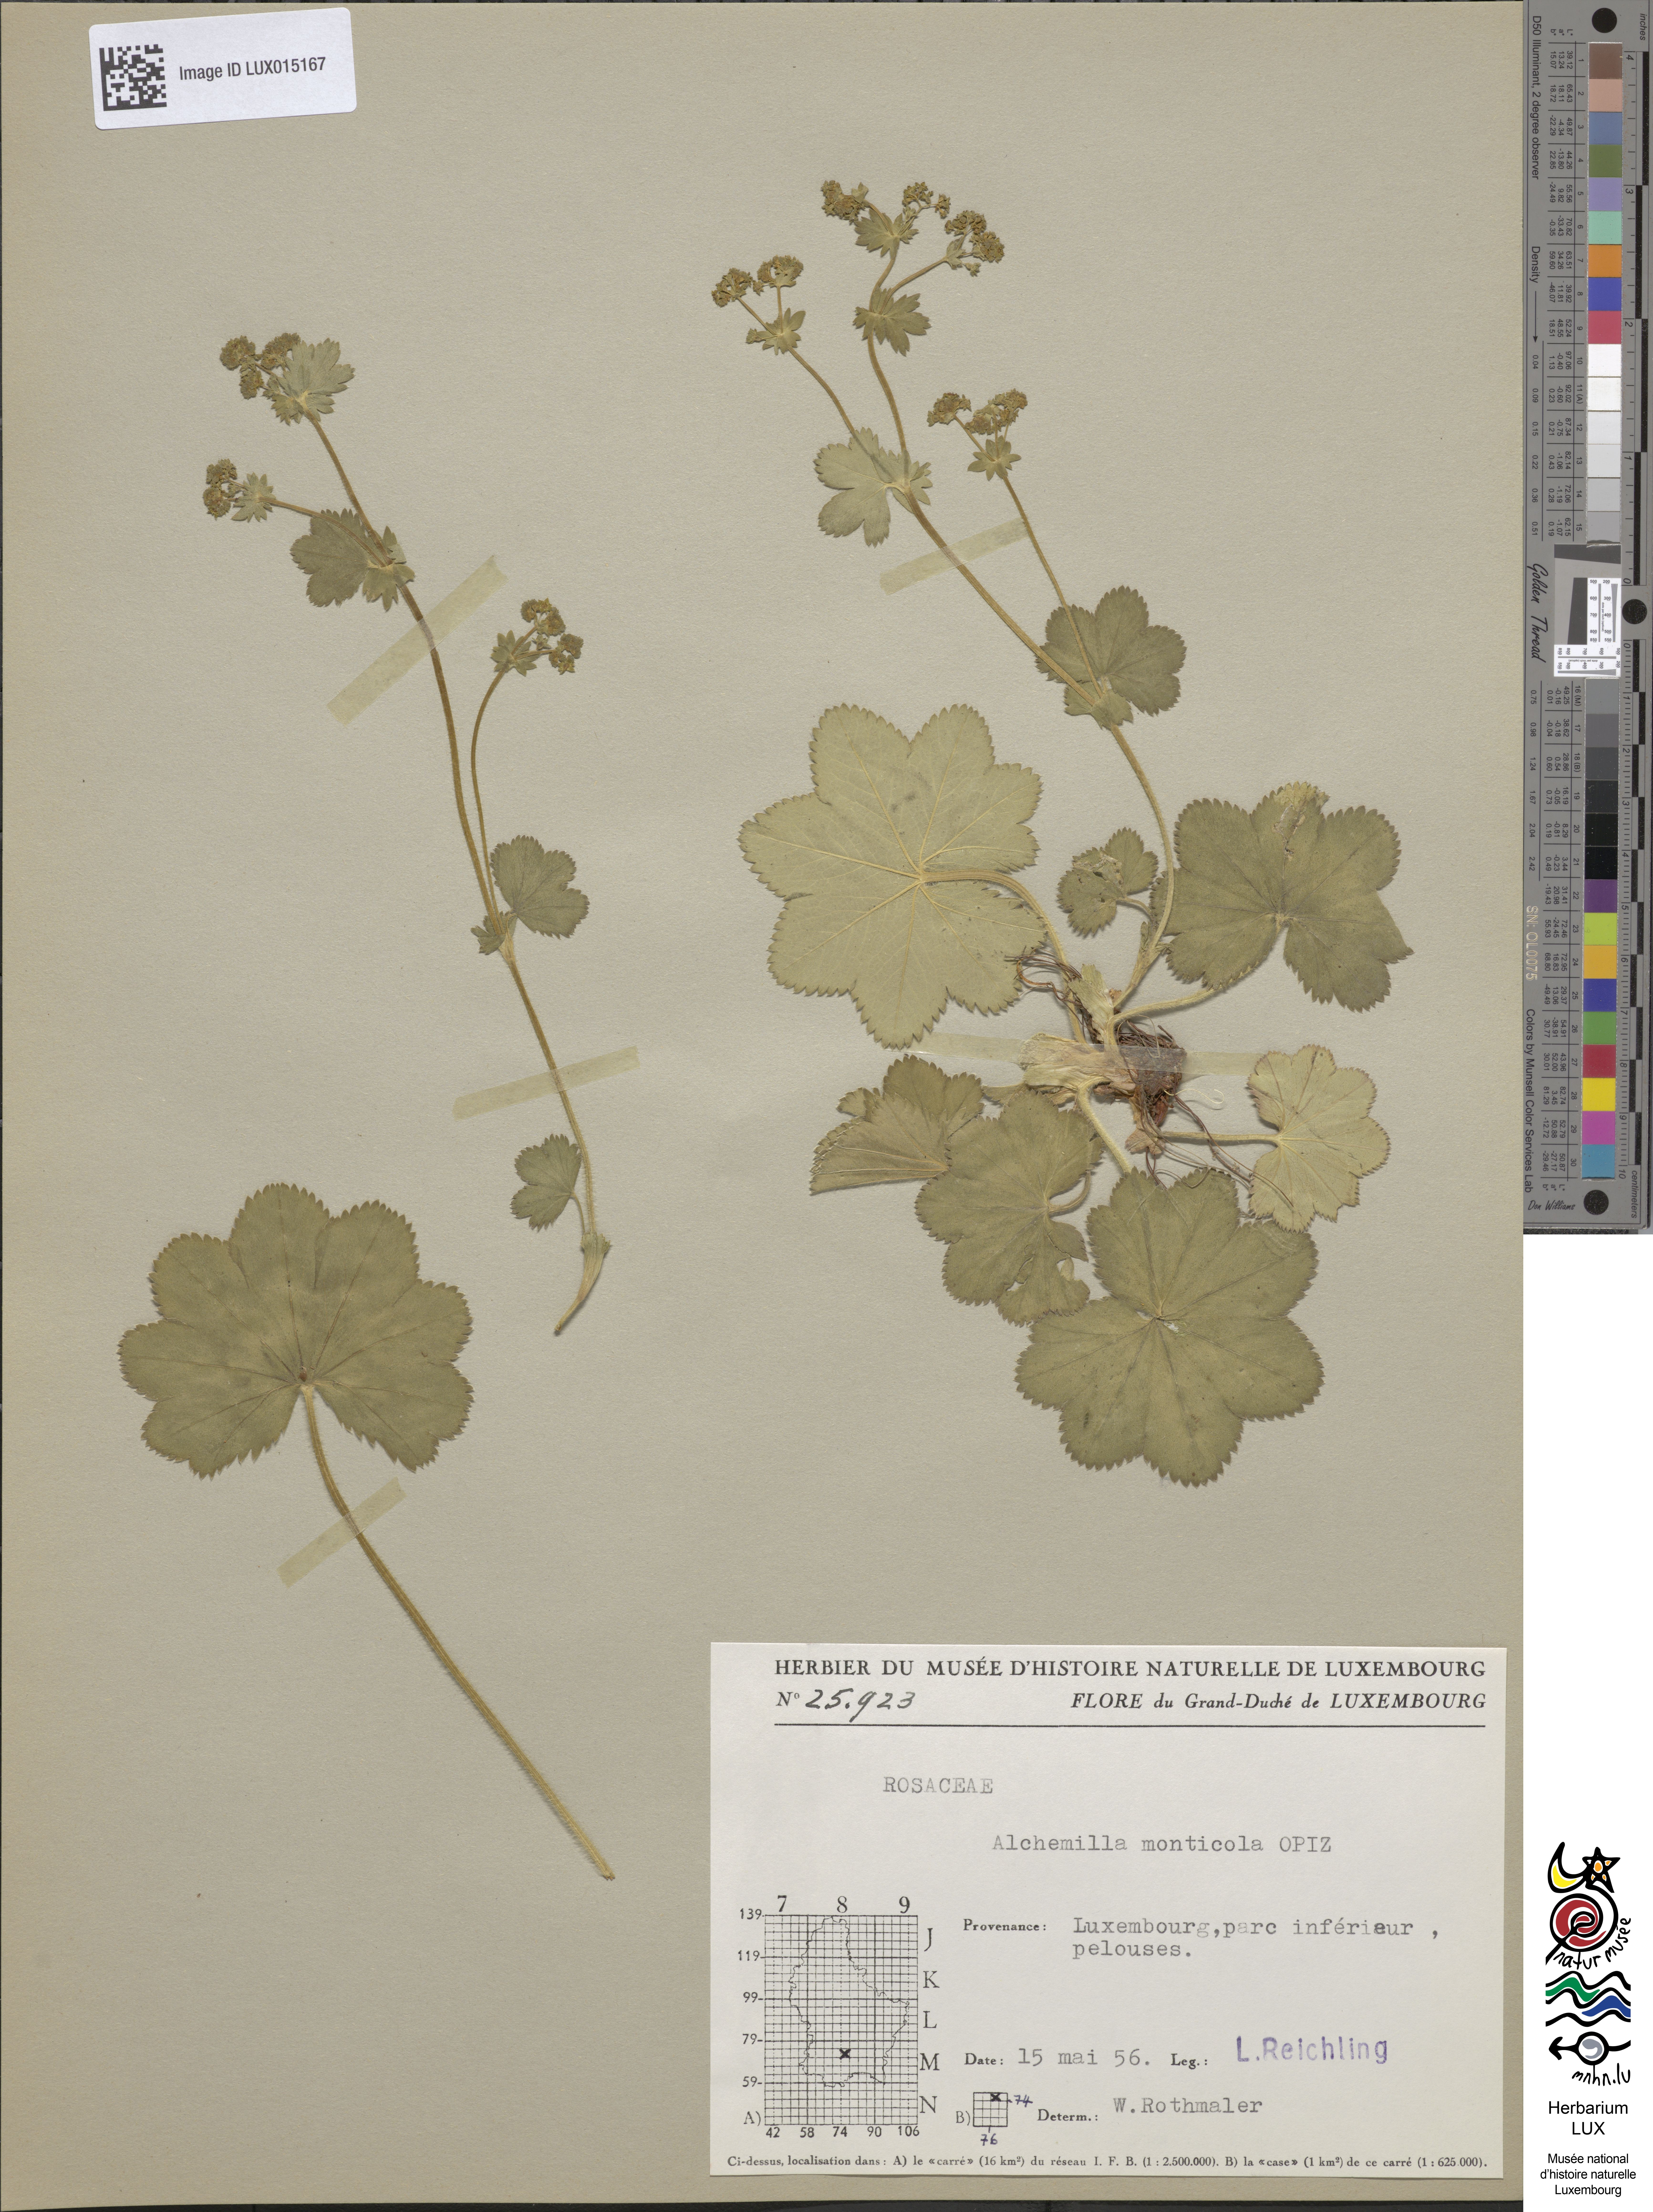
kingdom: Plantae
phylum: Tracheophyta
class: Magnoliopsida
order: Rosales
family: Rosaceae
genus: Alchemilla
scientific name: Alchemilla monticola
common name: Hairy lady's mantle
